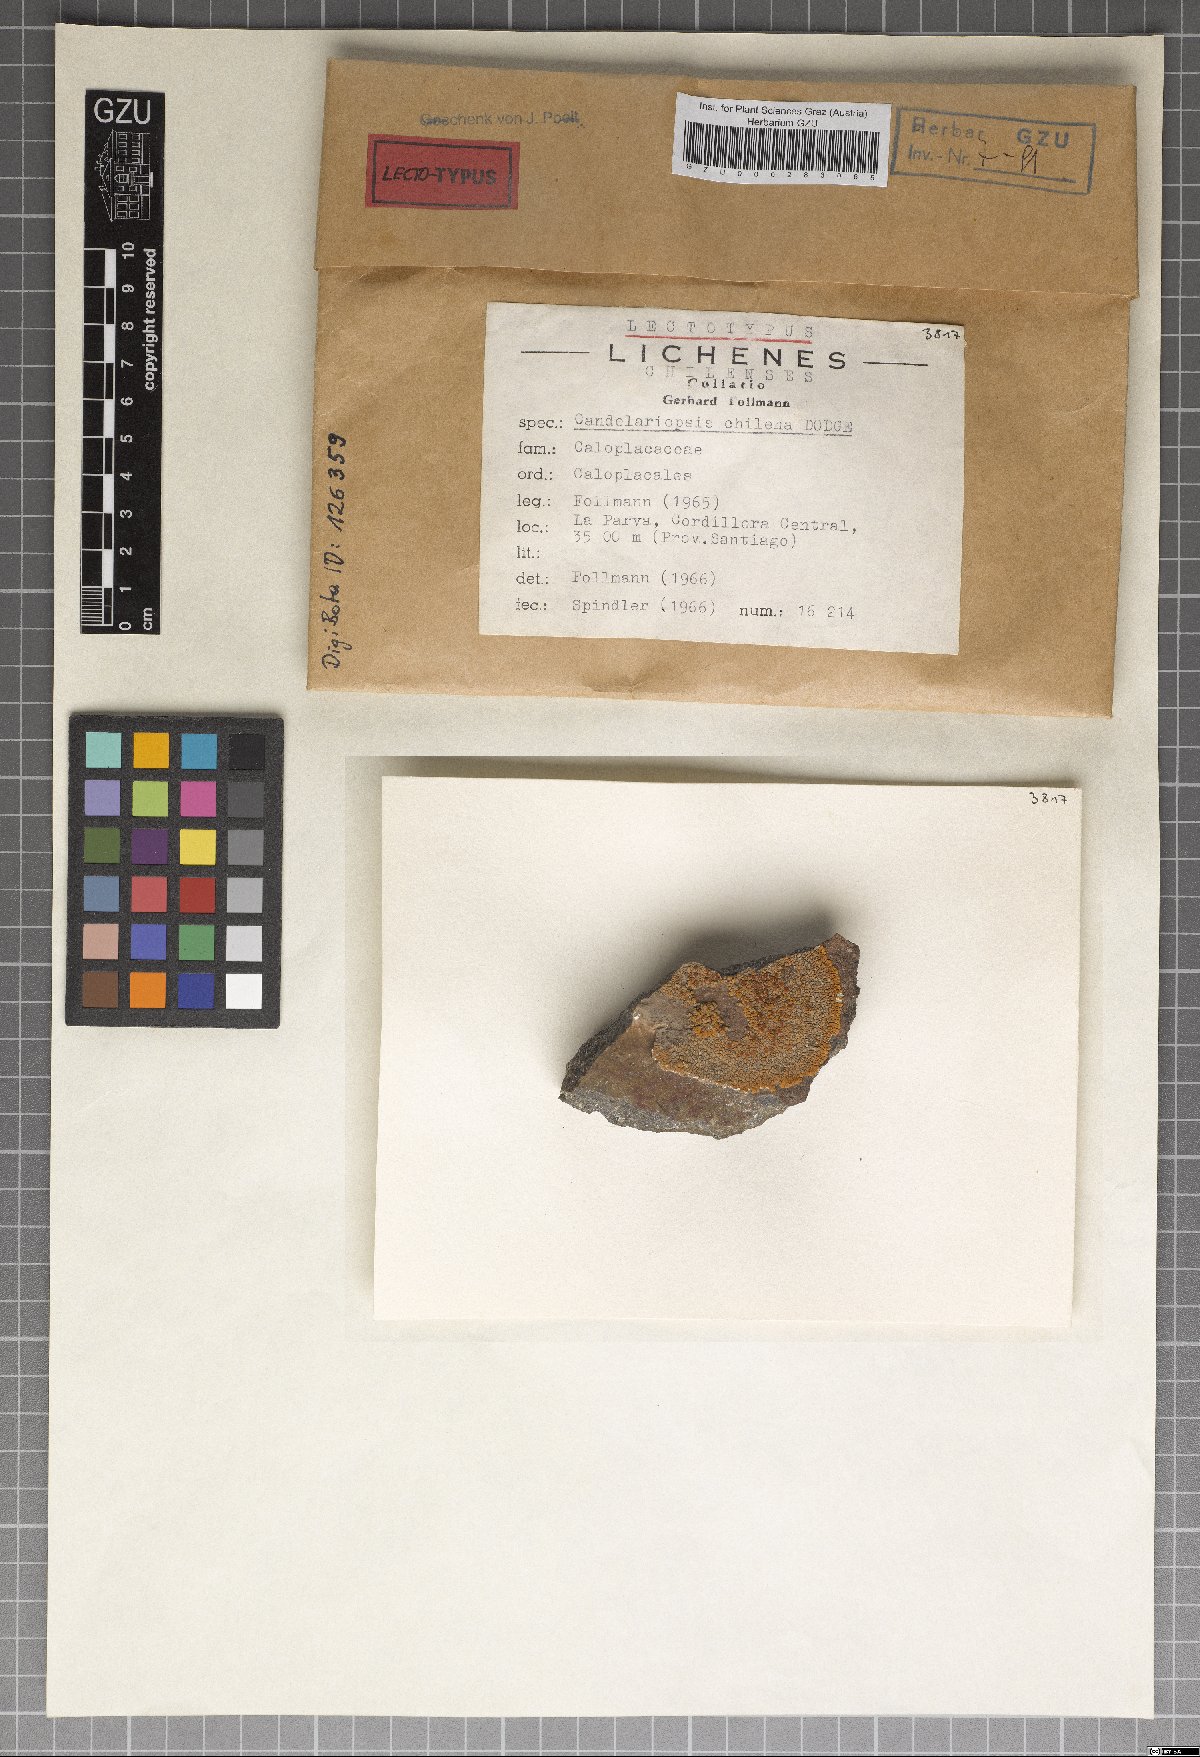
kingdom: Fungi
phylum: Ascomycota
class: Lecanoromycetes
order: Teloschistales
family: Teloschistaceae
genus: Caloplaca
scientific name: Caloplaca
